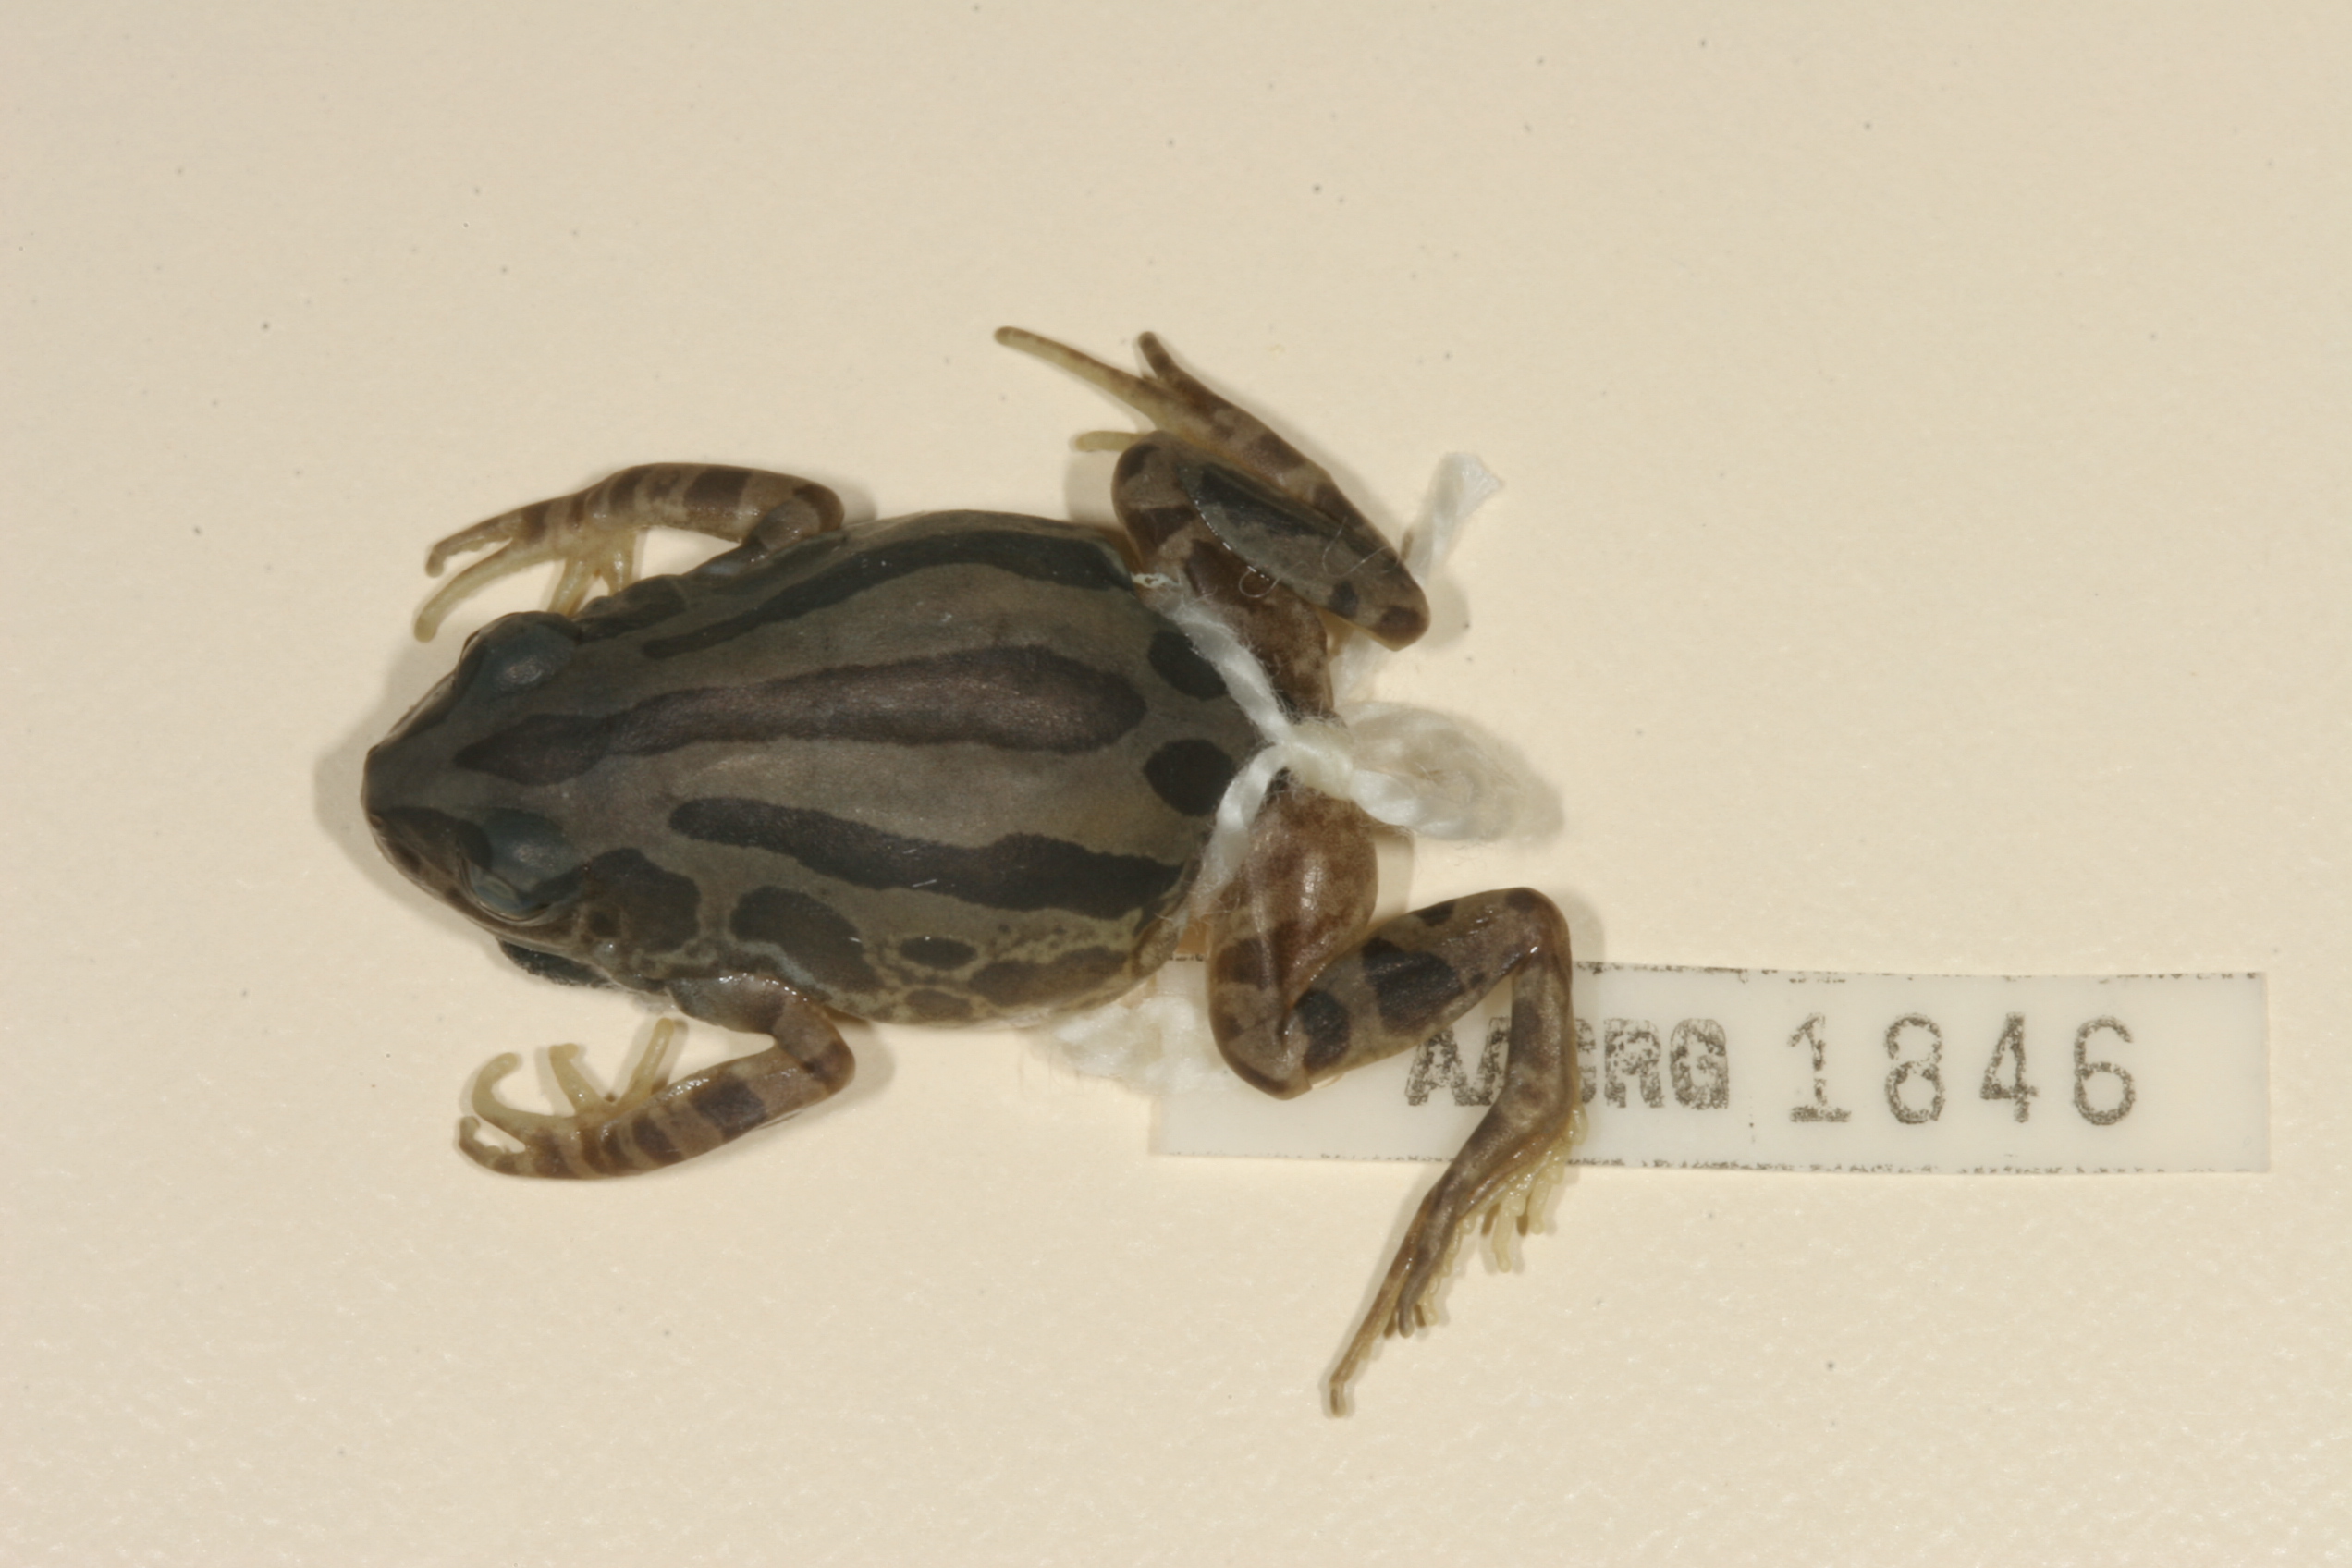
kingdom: Animalia
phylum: Chordata
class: Amphibia
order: Anura
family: Hyperoliidae
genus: Kassina
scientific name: Kassina senegalensis
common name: Senegal land frog
